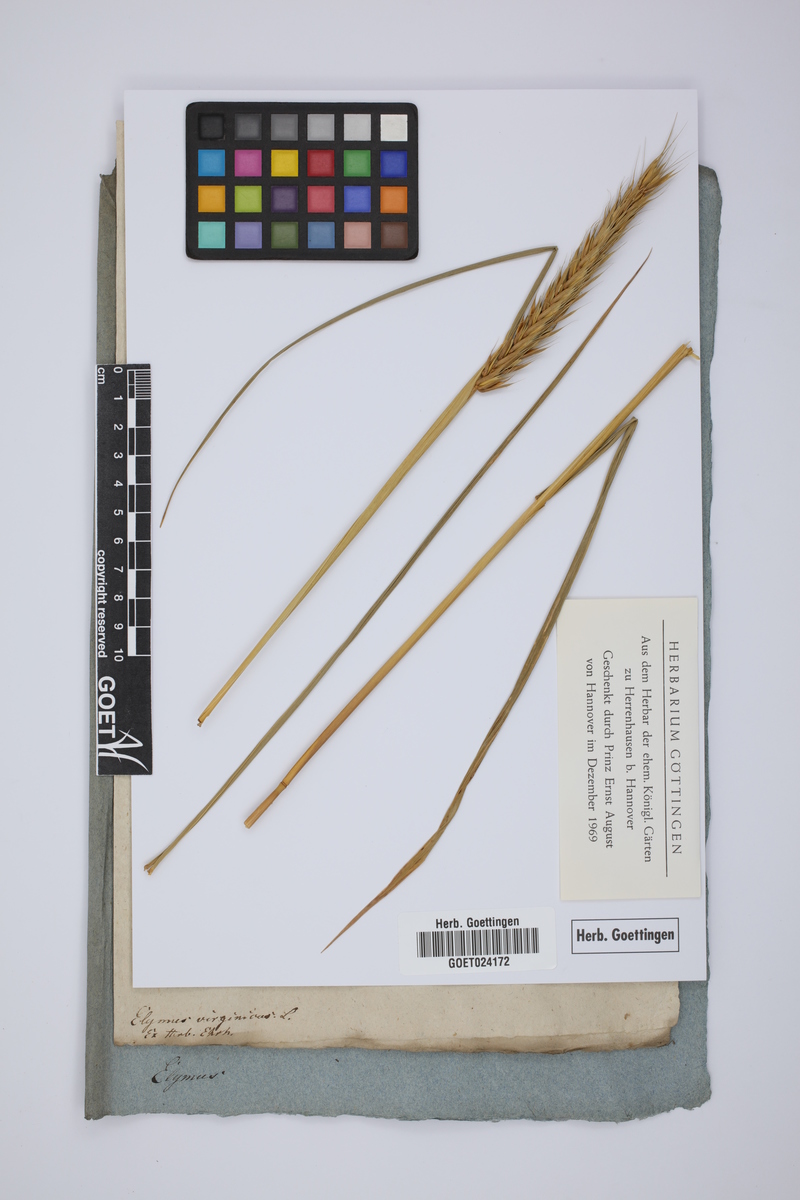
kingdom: Plantae
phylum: Tracheophyta
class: Liliopsida
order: Poales
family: Poaceae
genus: Elymus
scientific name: Elymus virginicus
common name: Common eastern wildrye
